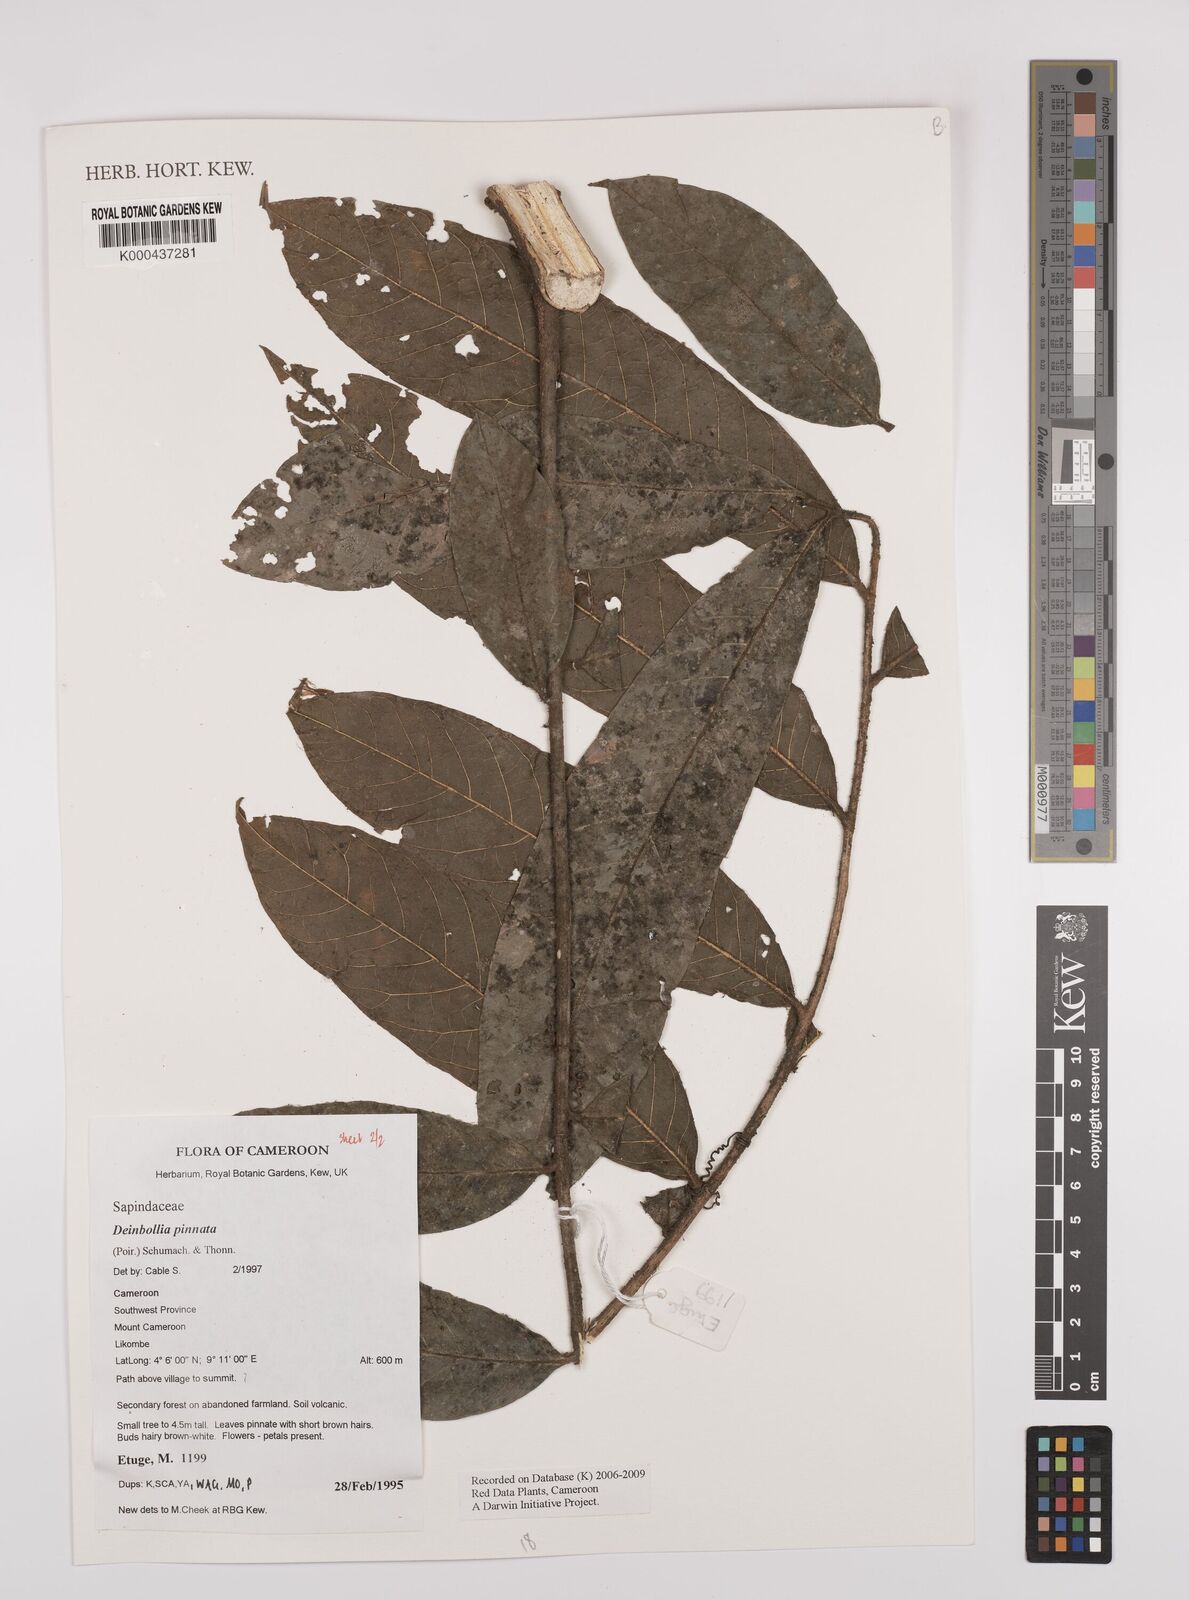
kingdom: Plantae
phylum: Tracheophyta
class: Magnoliopsida
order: Sapindales
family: Sapindaceae
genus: Deinbollia
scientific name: Deinbollia pinnata
